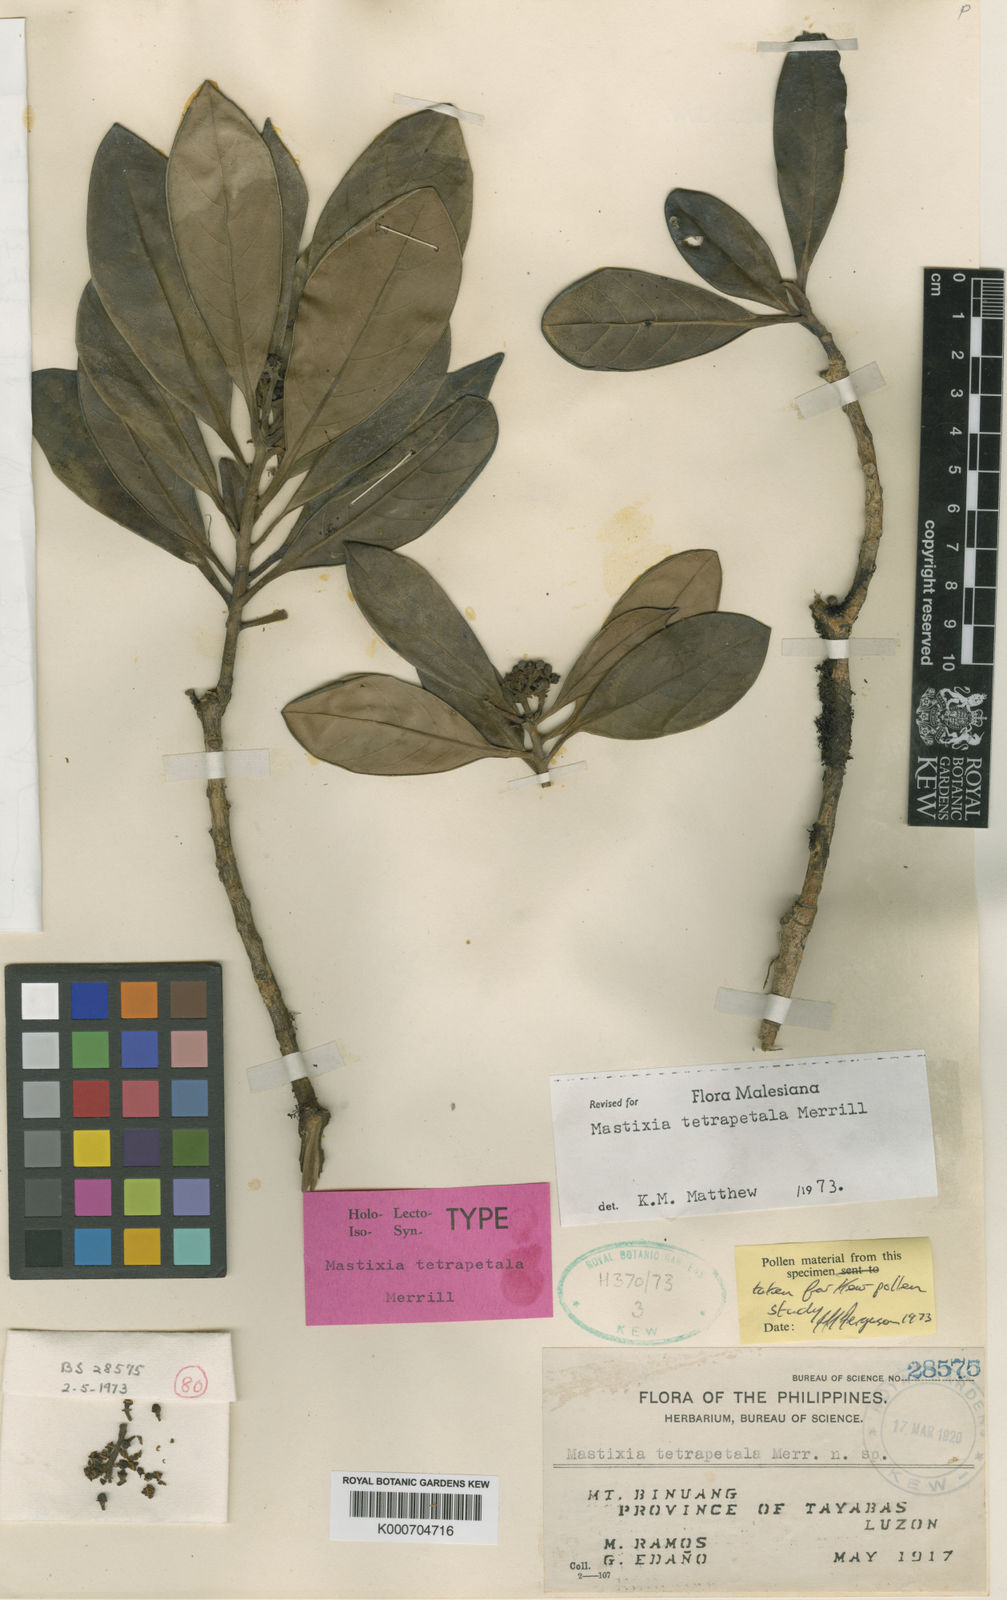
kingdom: Plantae
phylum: Tracheophyta
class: Magnoliopsida
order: Cornales
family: Nyssaceae
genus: Mastixia
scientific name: Mastixia tetrapetala
